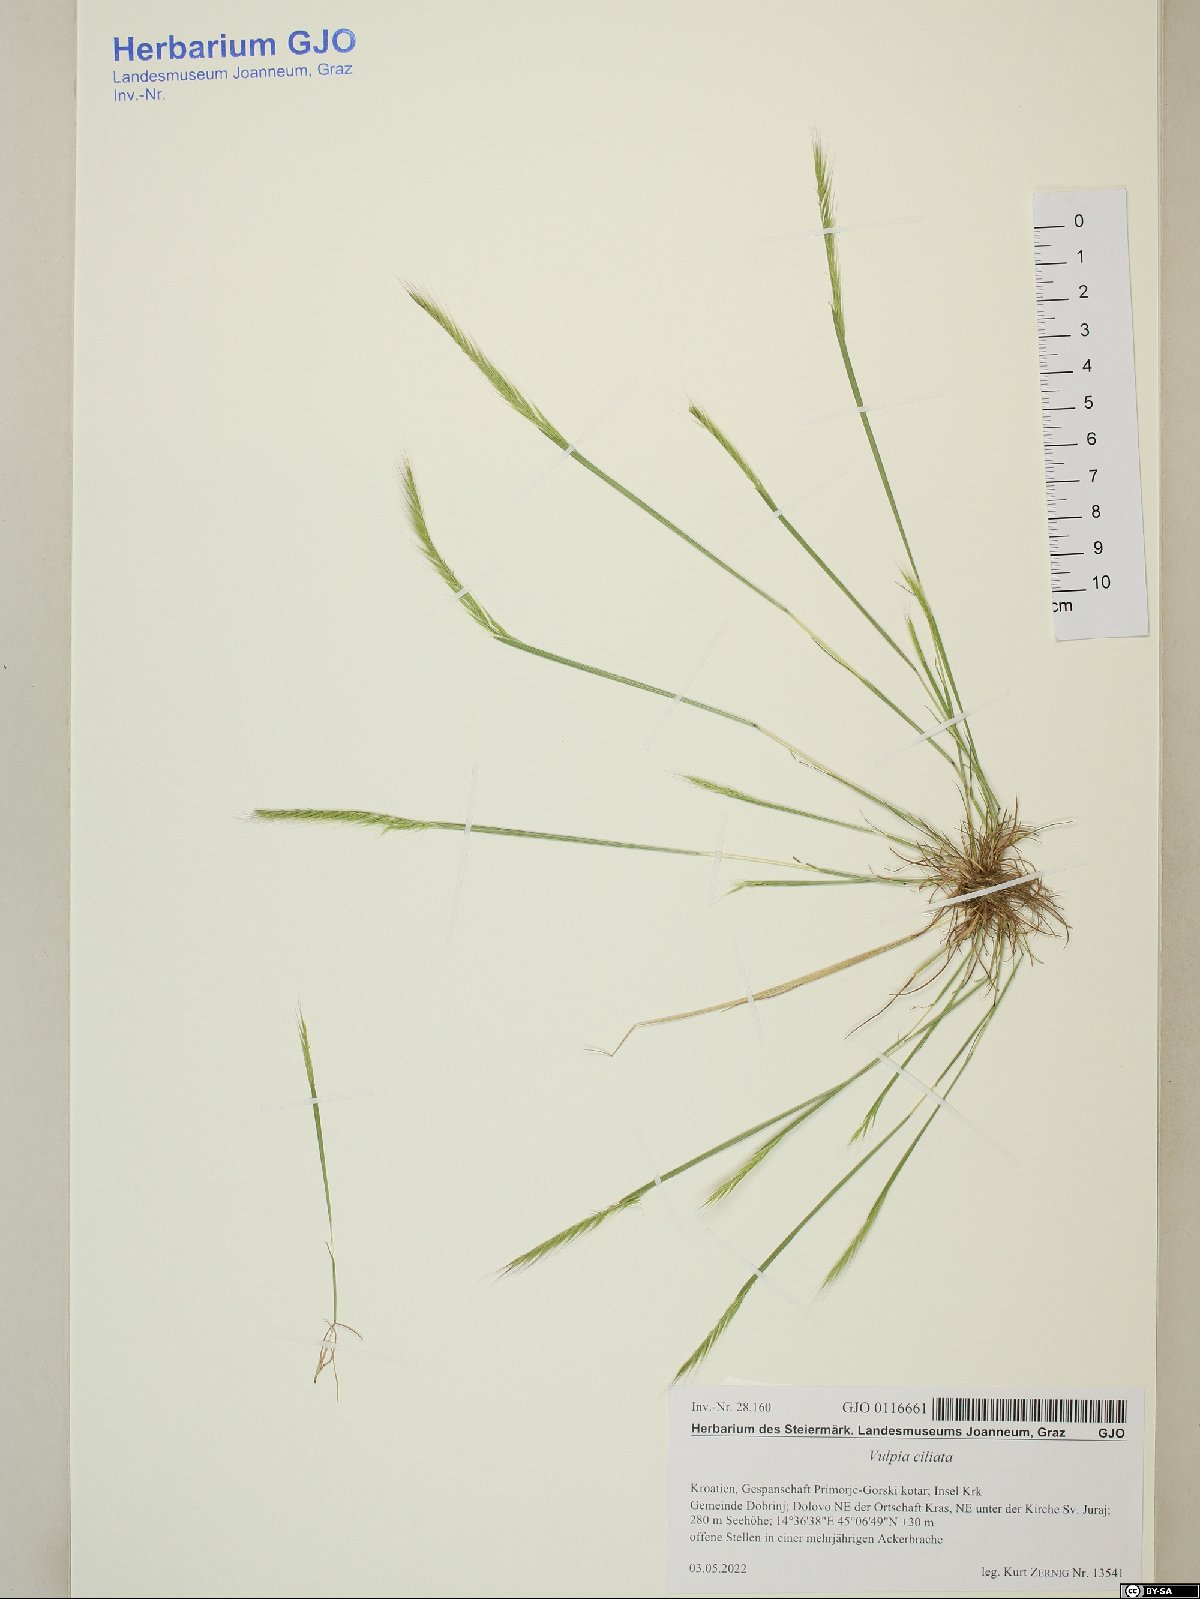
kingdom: Plantae
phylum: Tracheophyta
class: Liliopsida
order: Poales
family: Poaceae
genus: Festuca
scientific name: Festuca ambigua
